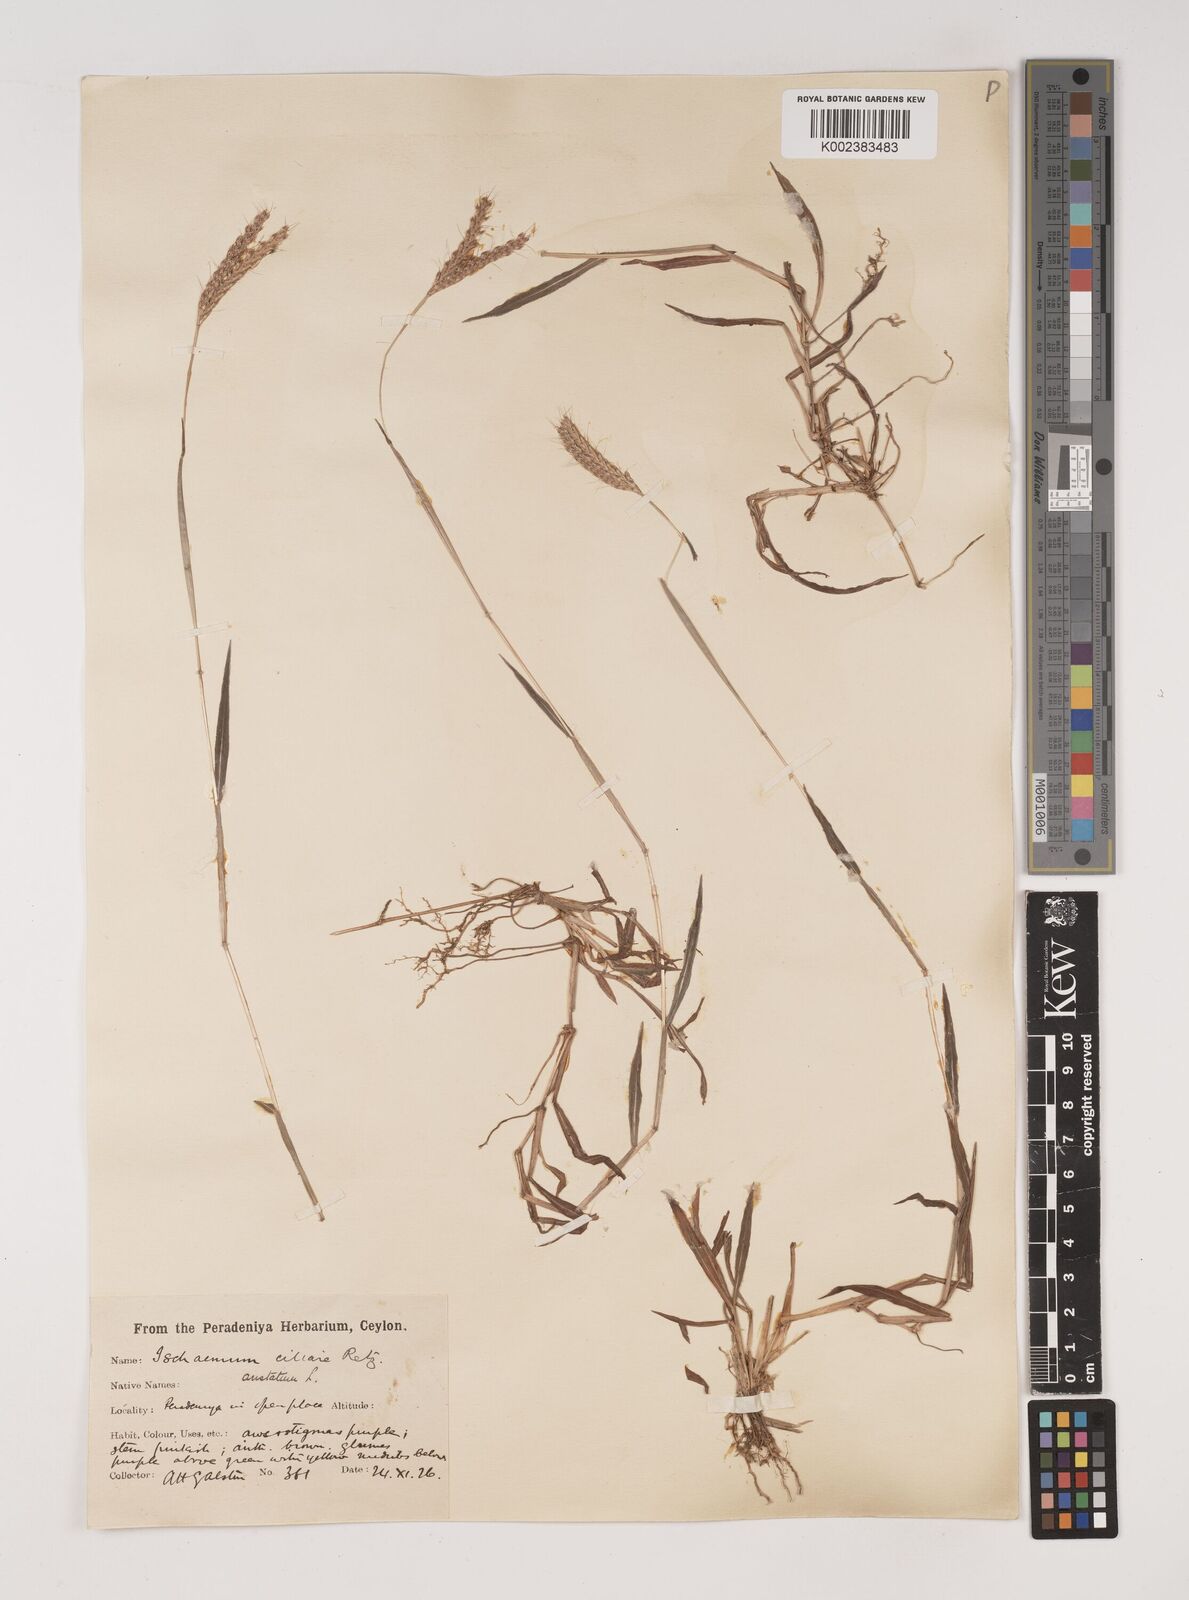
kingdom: Plantae
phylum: Tracheophyta
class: Liliopsida
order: Poales
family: Poaceae
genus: Polytrias
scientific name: Polytrias indica
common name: Indian murainagrass
